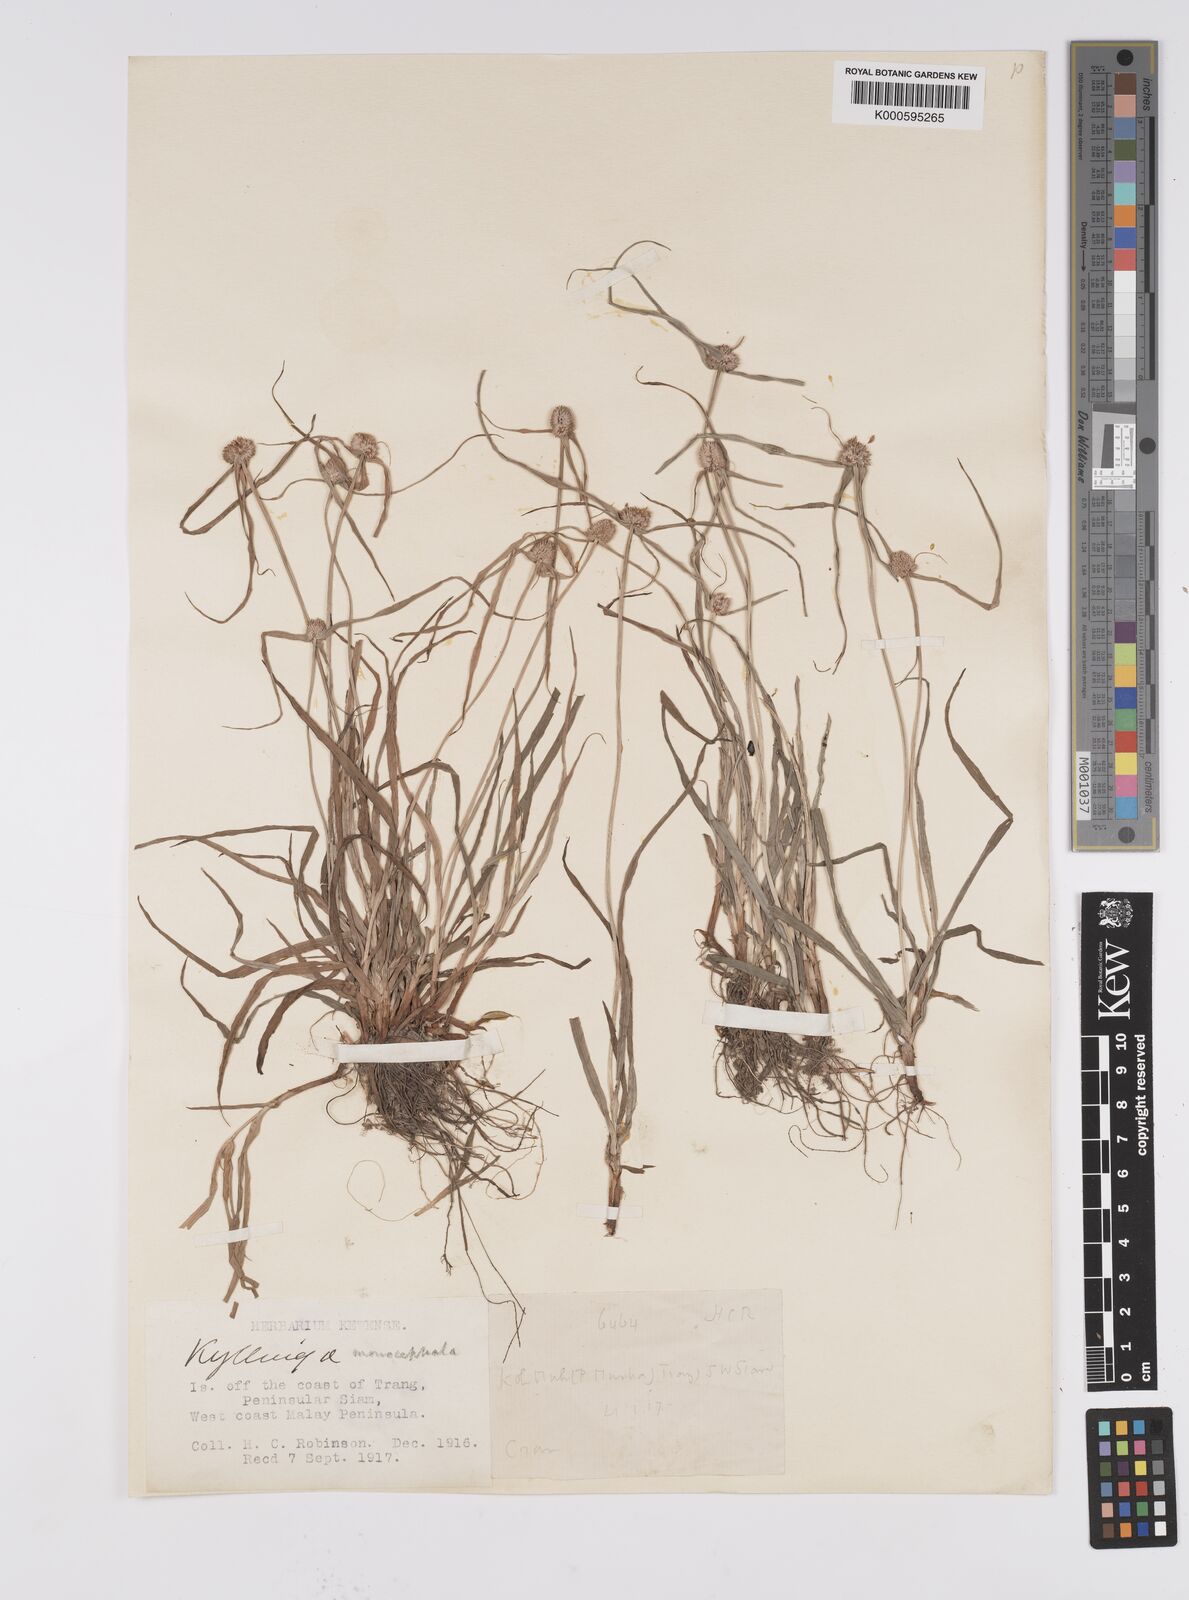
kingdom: Plantae
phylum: Tracheophyta
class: Liliopsida
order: Poales
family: Cyperaceae
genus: Cyperus
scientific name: Cyperus mindorensis
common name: Flatsedge
